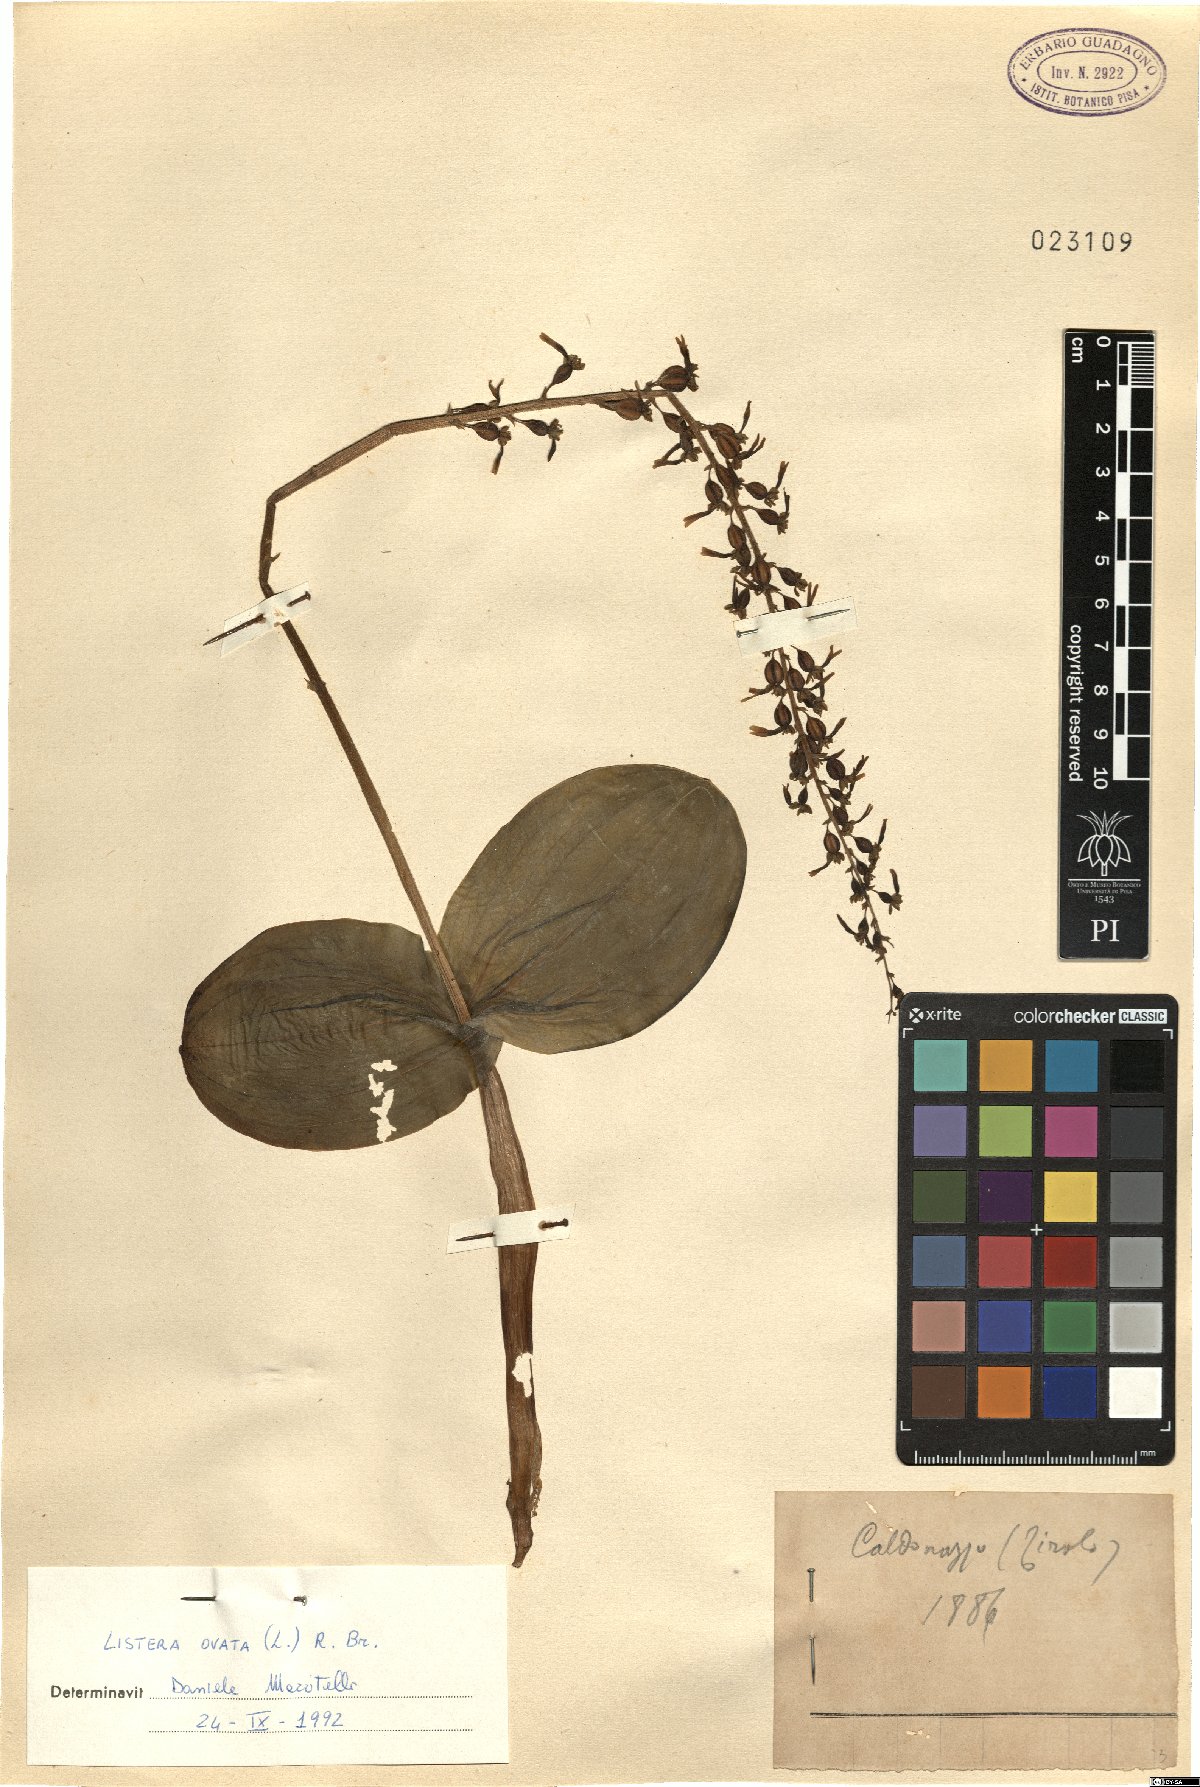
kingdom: Plantae
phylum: Tracheophyta
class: Liliopsida
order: Asparagales
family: Orchidaceae
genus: Neottia
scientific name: Neottia ovata
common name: Common twayblade
